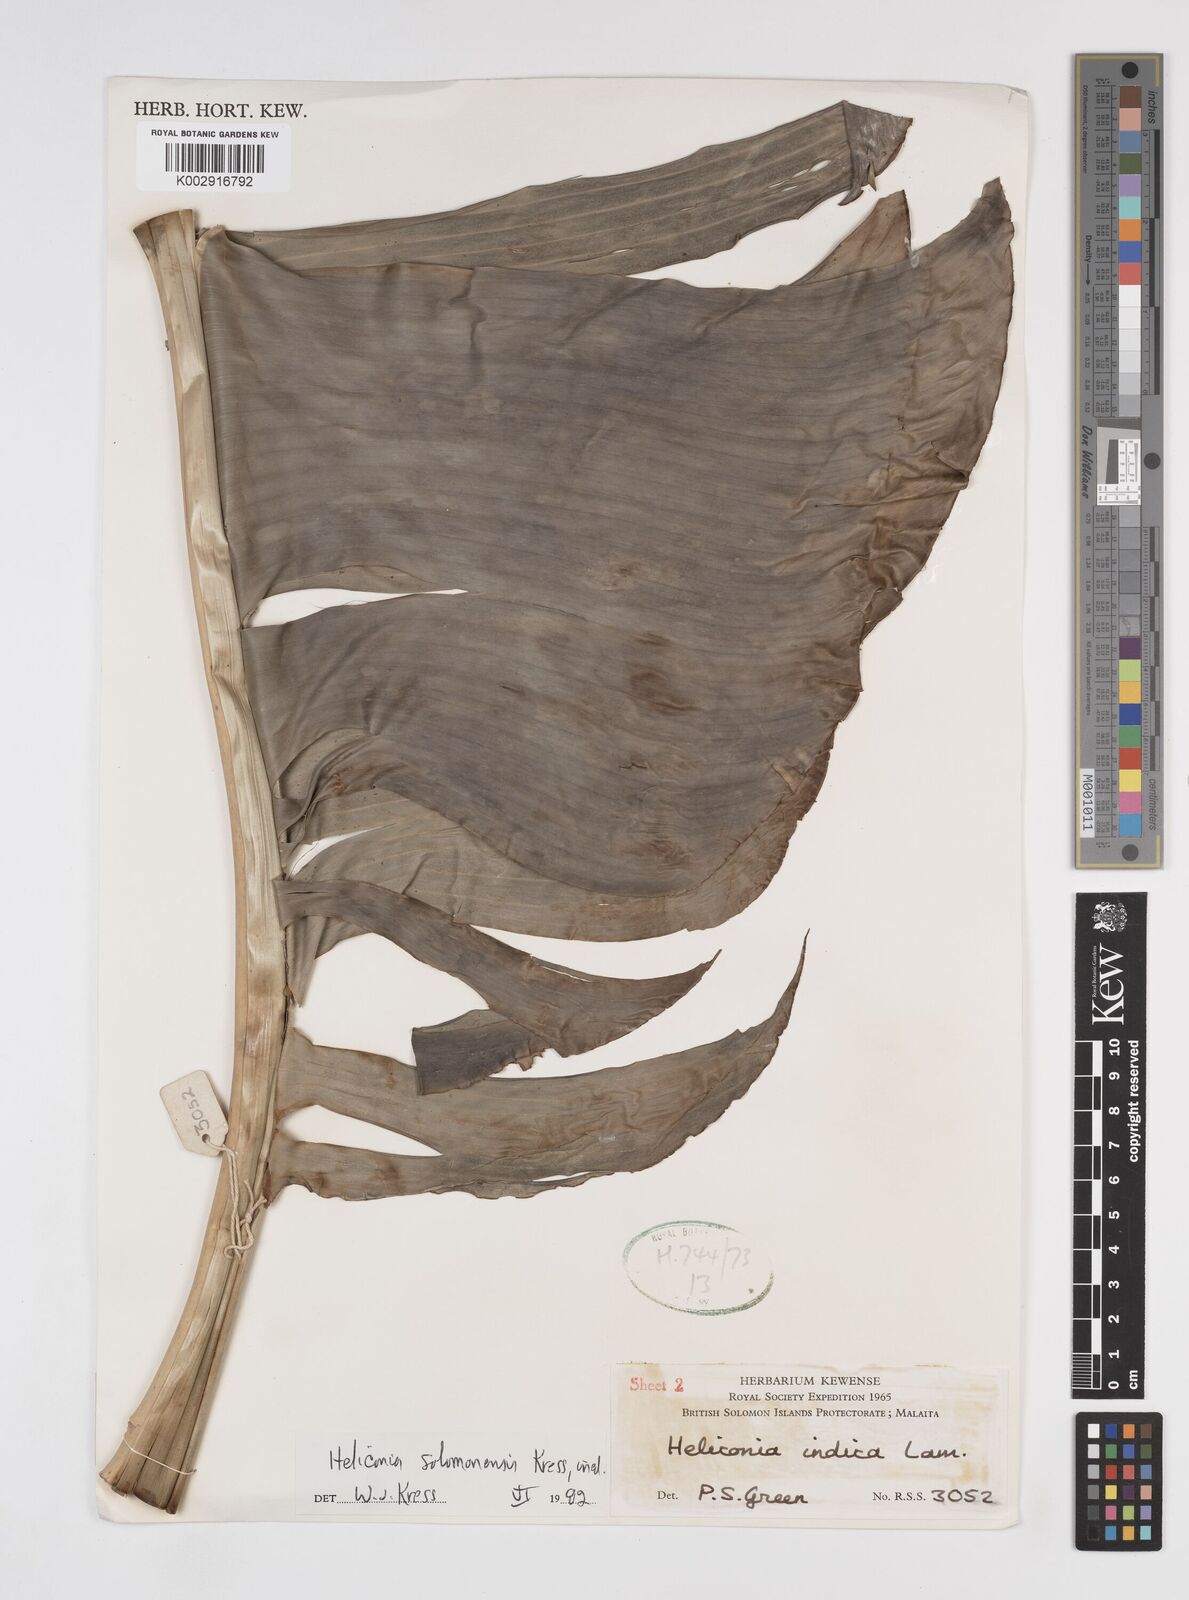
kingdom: Plantae
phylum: Tracheophyta
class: Liliopsida
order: Zingiberales
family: Heliconiaceae
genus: Heliconia
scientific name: Heliconia solomonensis
